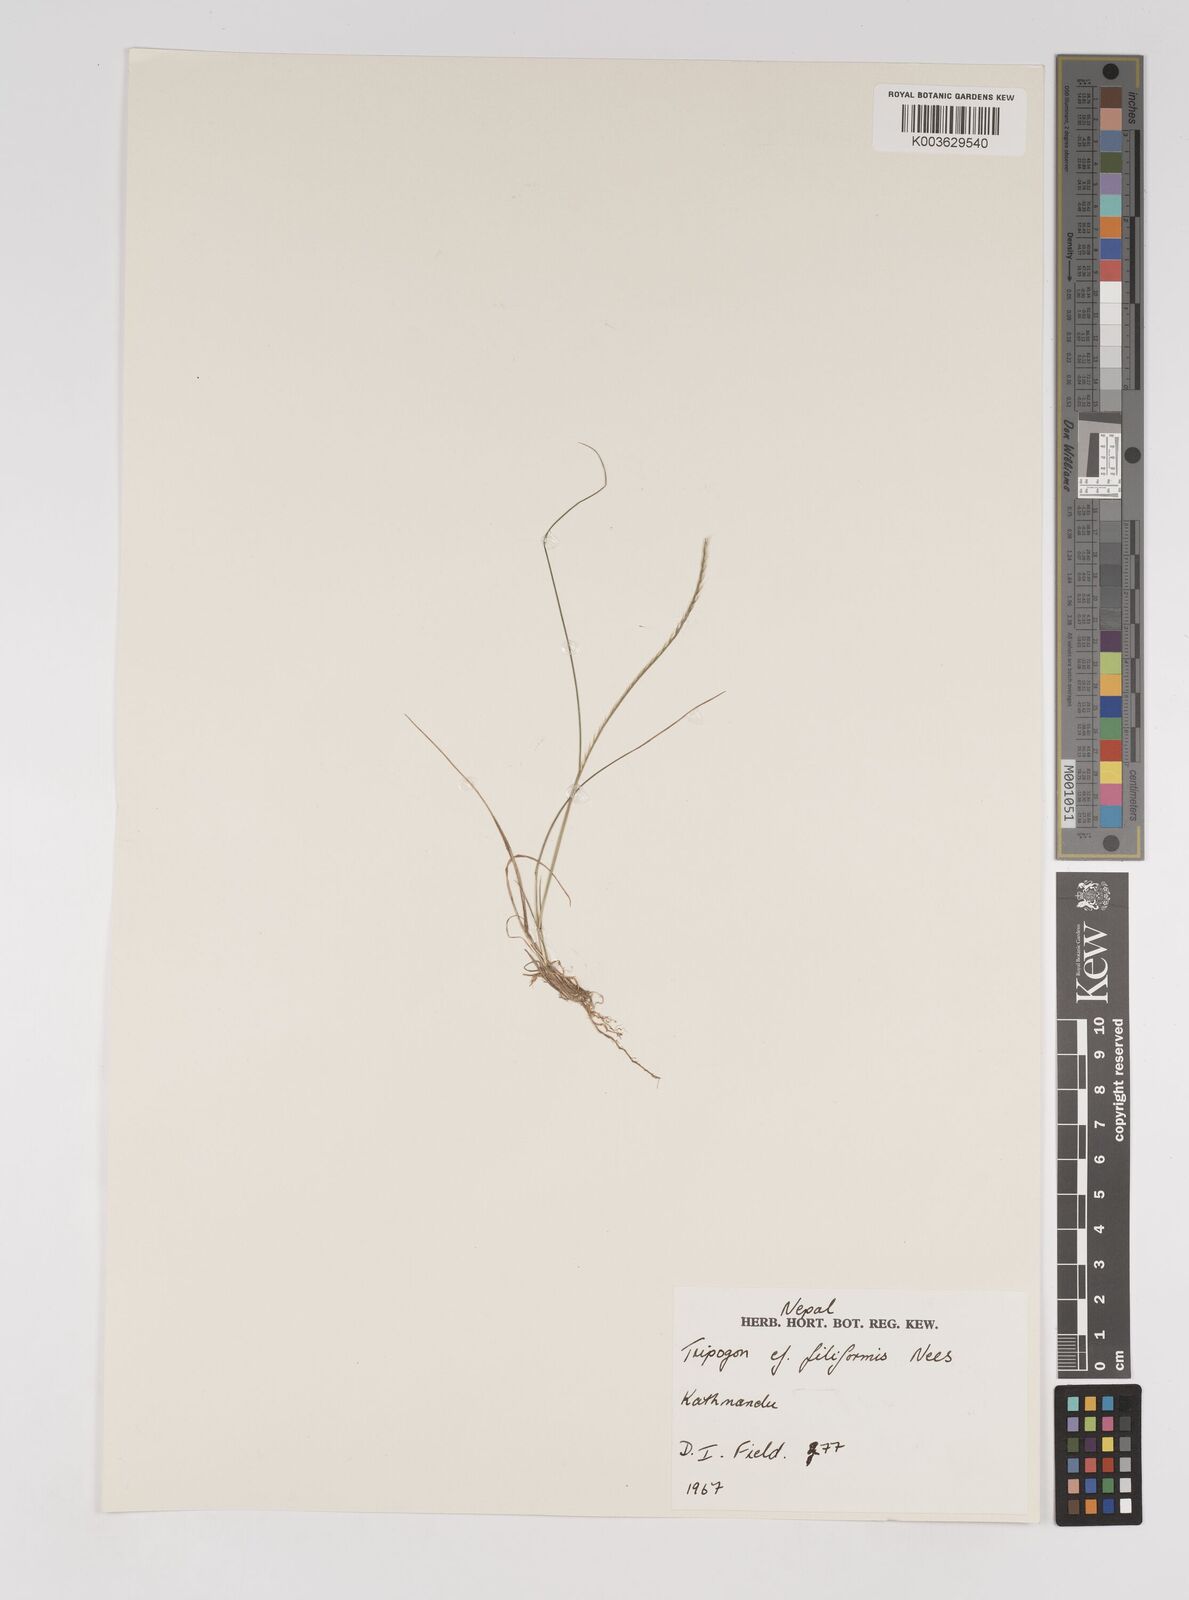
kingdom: Plantae
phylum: Tracheophyta
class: Liliopsida
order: Poales
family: Poaceae
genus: Tripogon
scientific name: Tripogon filiformis
